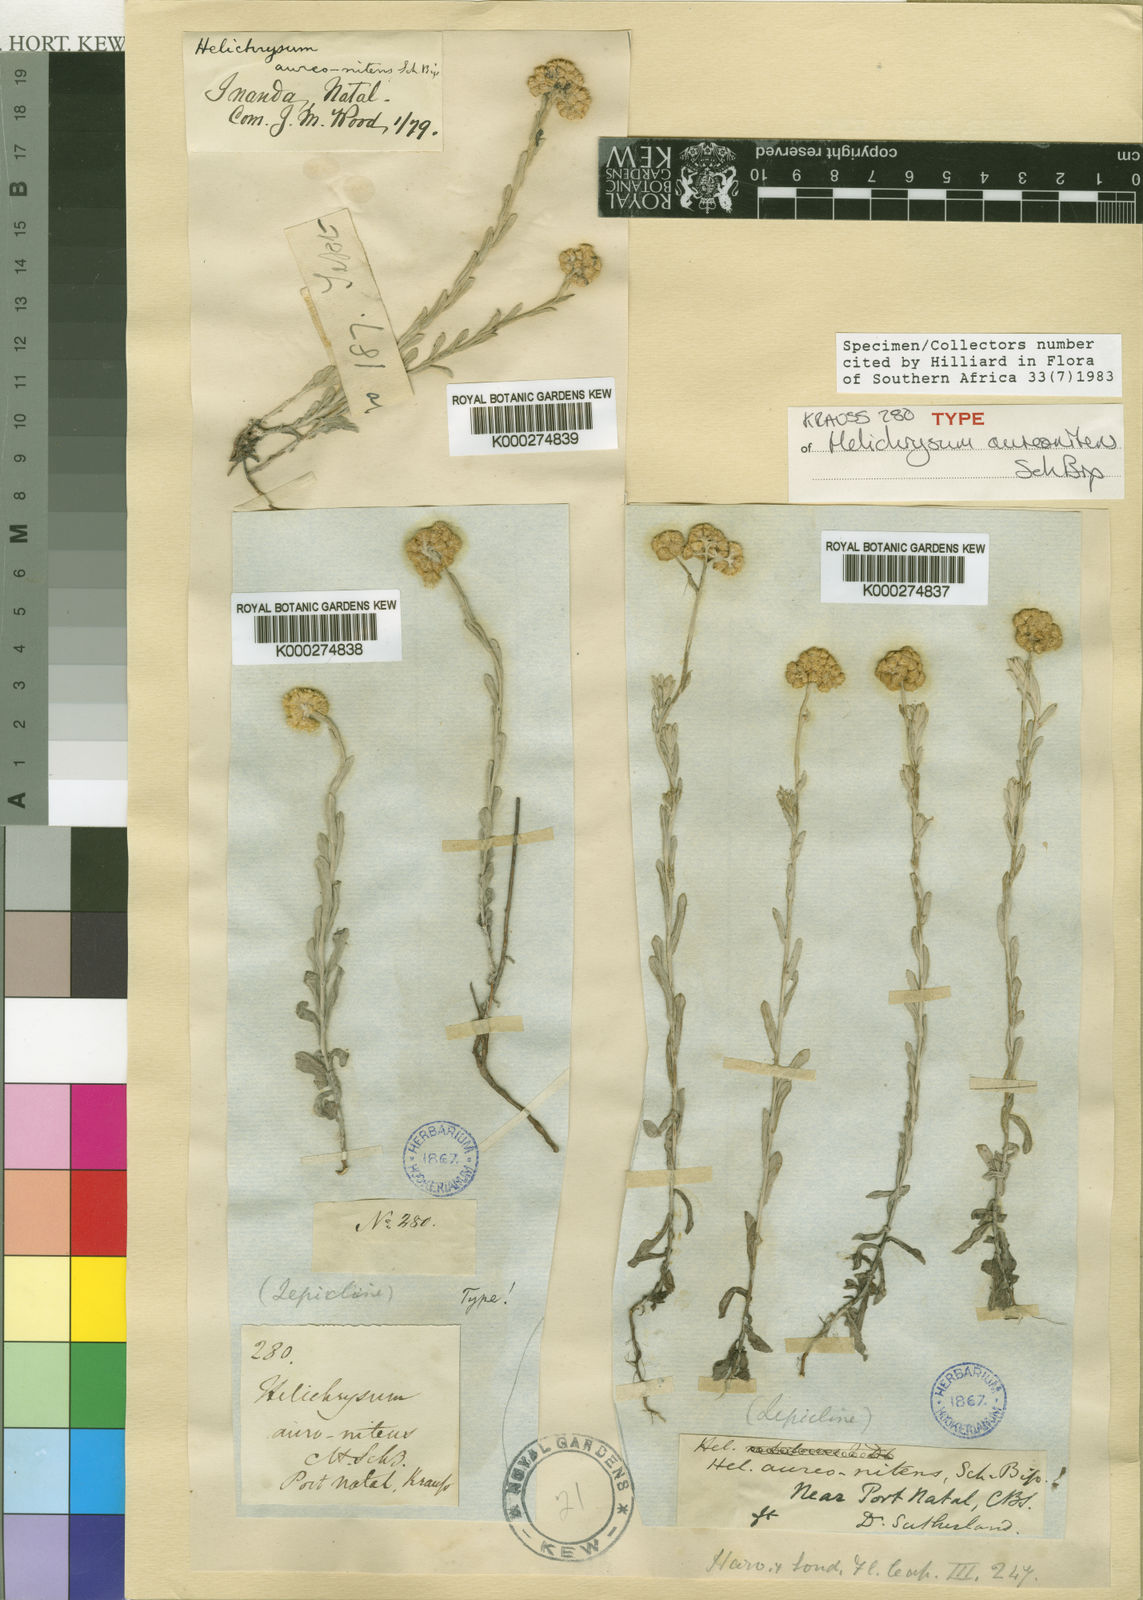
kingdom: Plantae
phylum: Tracheophyta
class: Magnoliopsida
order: Asterales
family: Asteraceae
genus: Helichrysum
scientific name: Helichrysum auronitens
